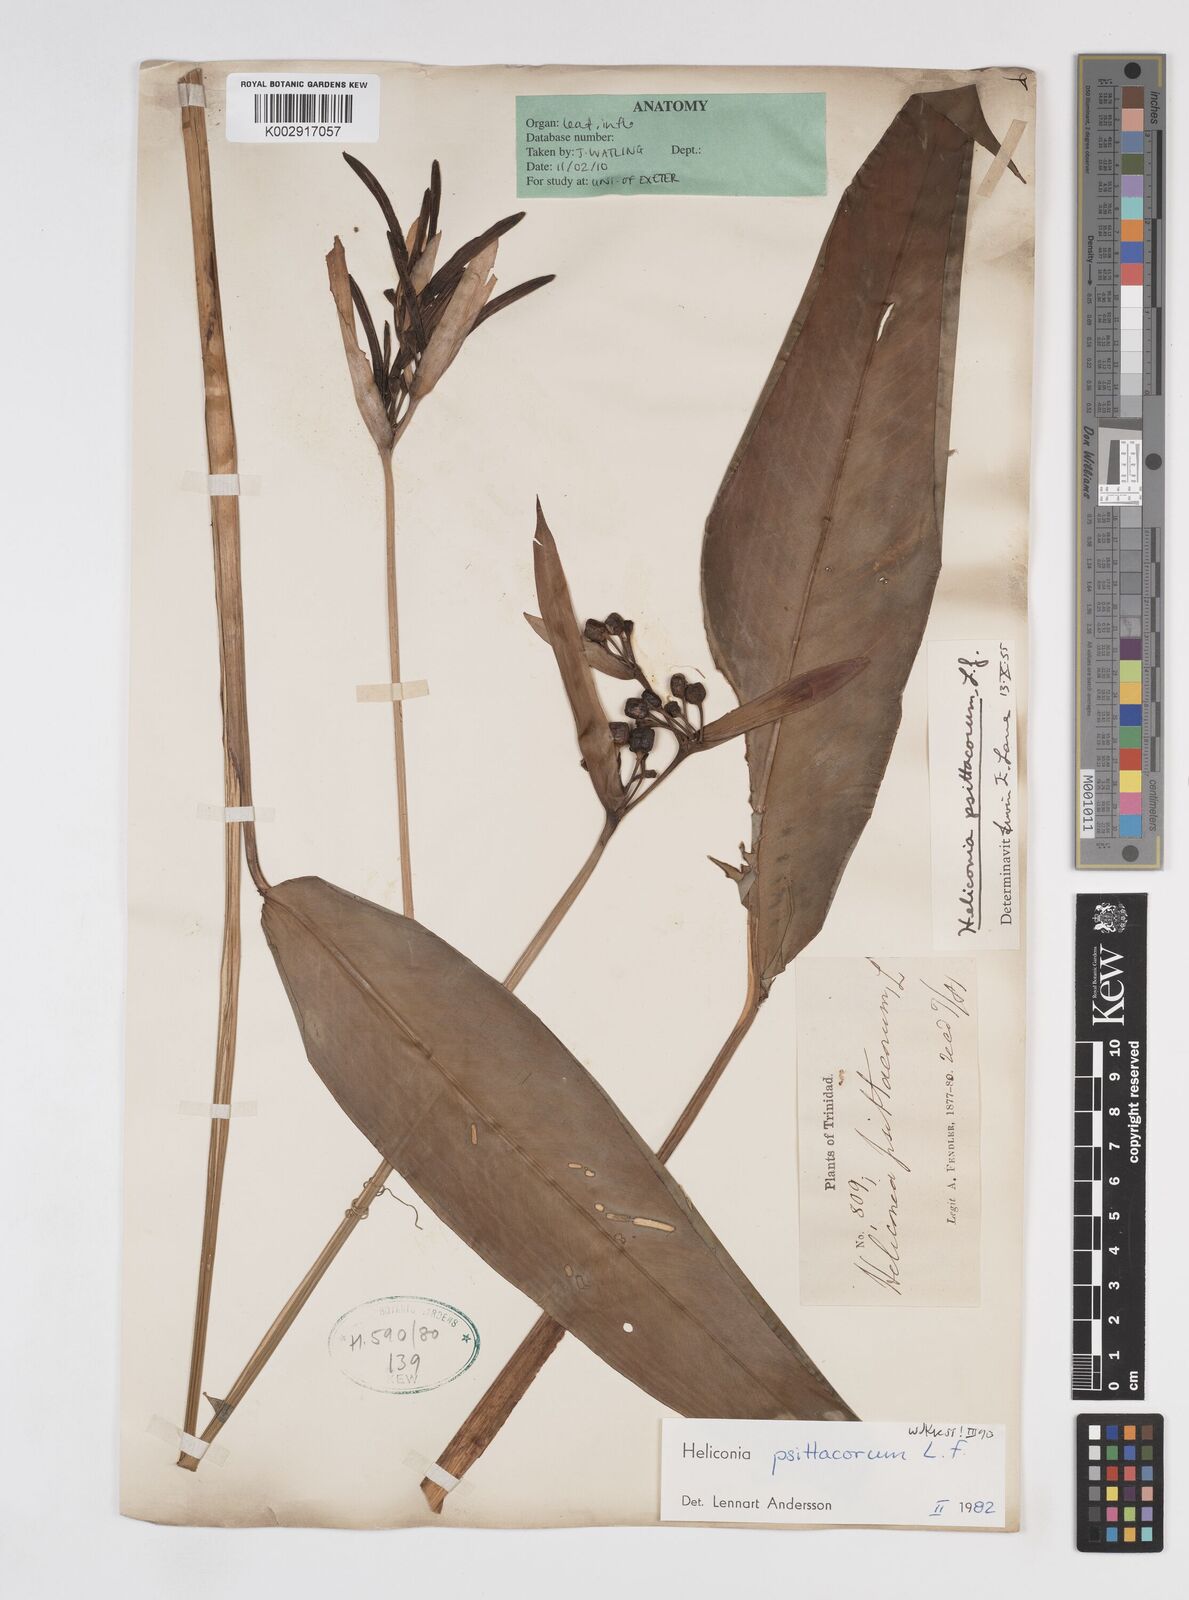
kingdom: Plantae
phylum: Tracheophyta
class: Liliopsida
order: Zingiberales
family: Heliconiaceae
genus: Heliconia
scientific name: Heliconia psittacorum
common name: Parrot's-flower
